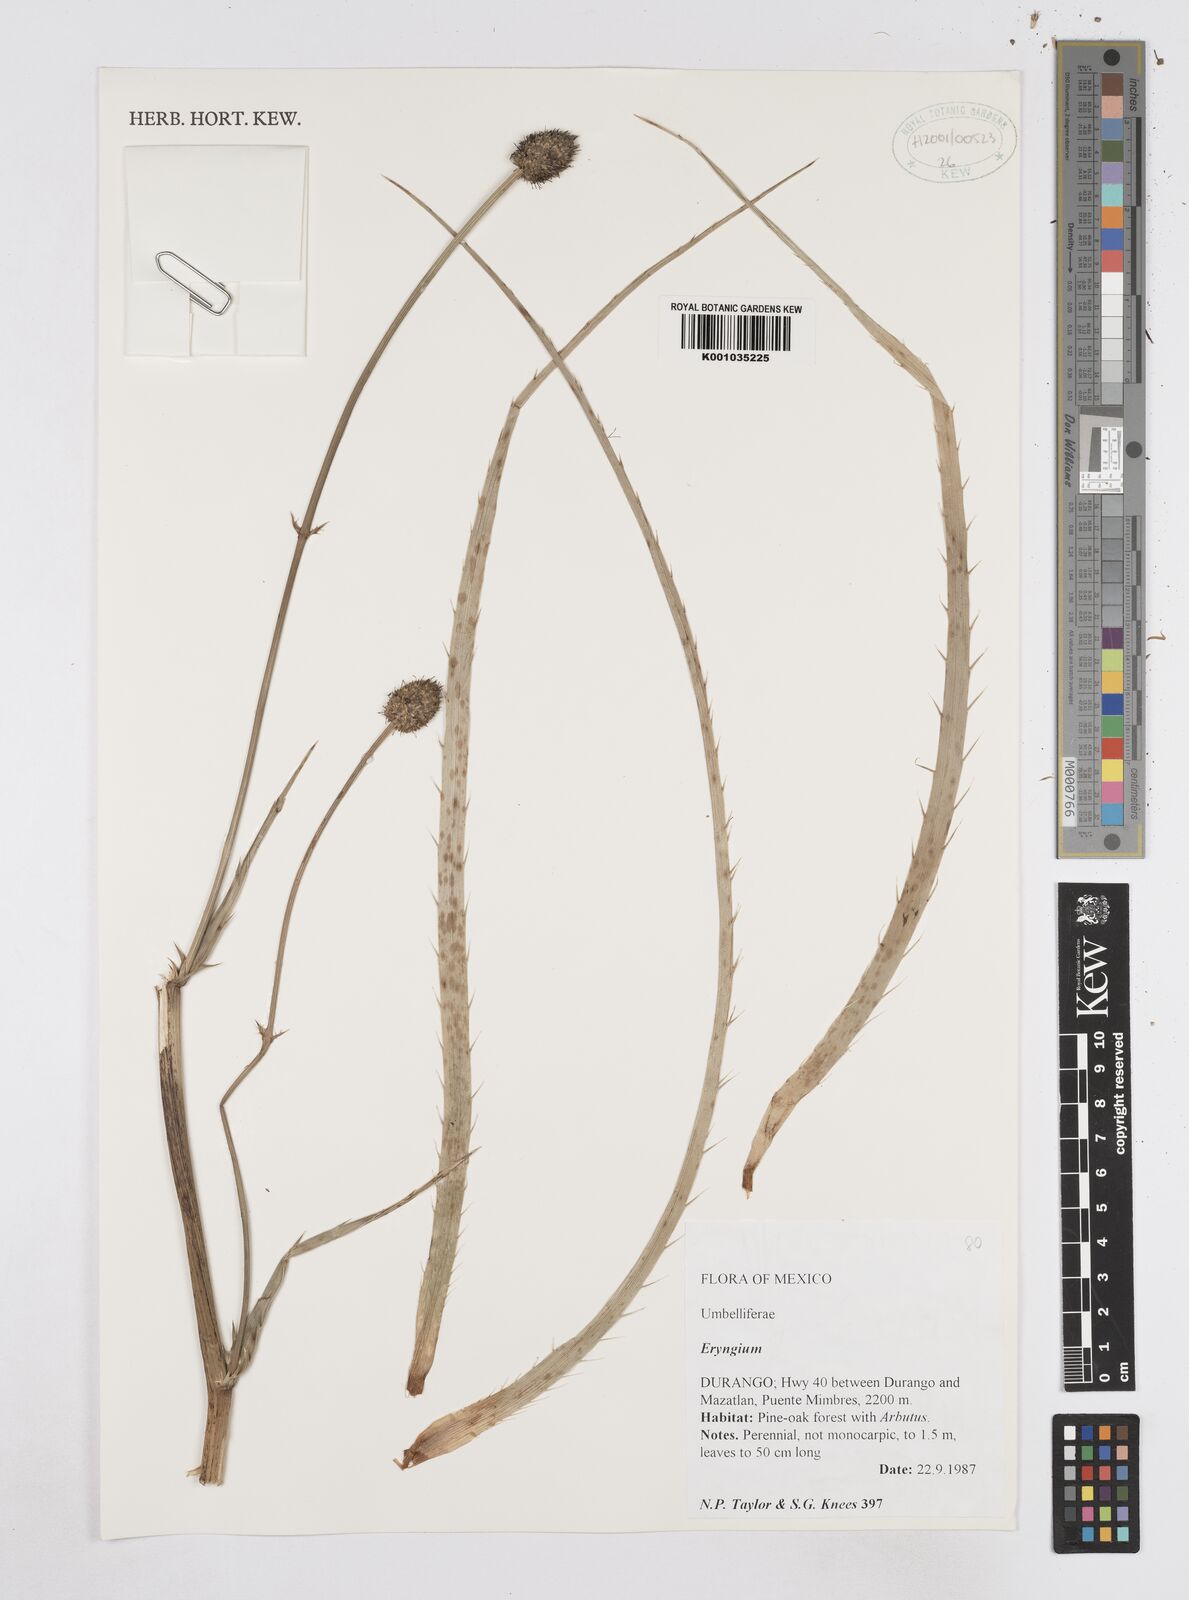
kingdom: Plantae
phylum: Tracheophyta
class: Magnoliopsida
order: Apiales
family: Apiaceae
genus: Eryngium
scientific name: Eryngium
